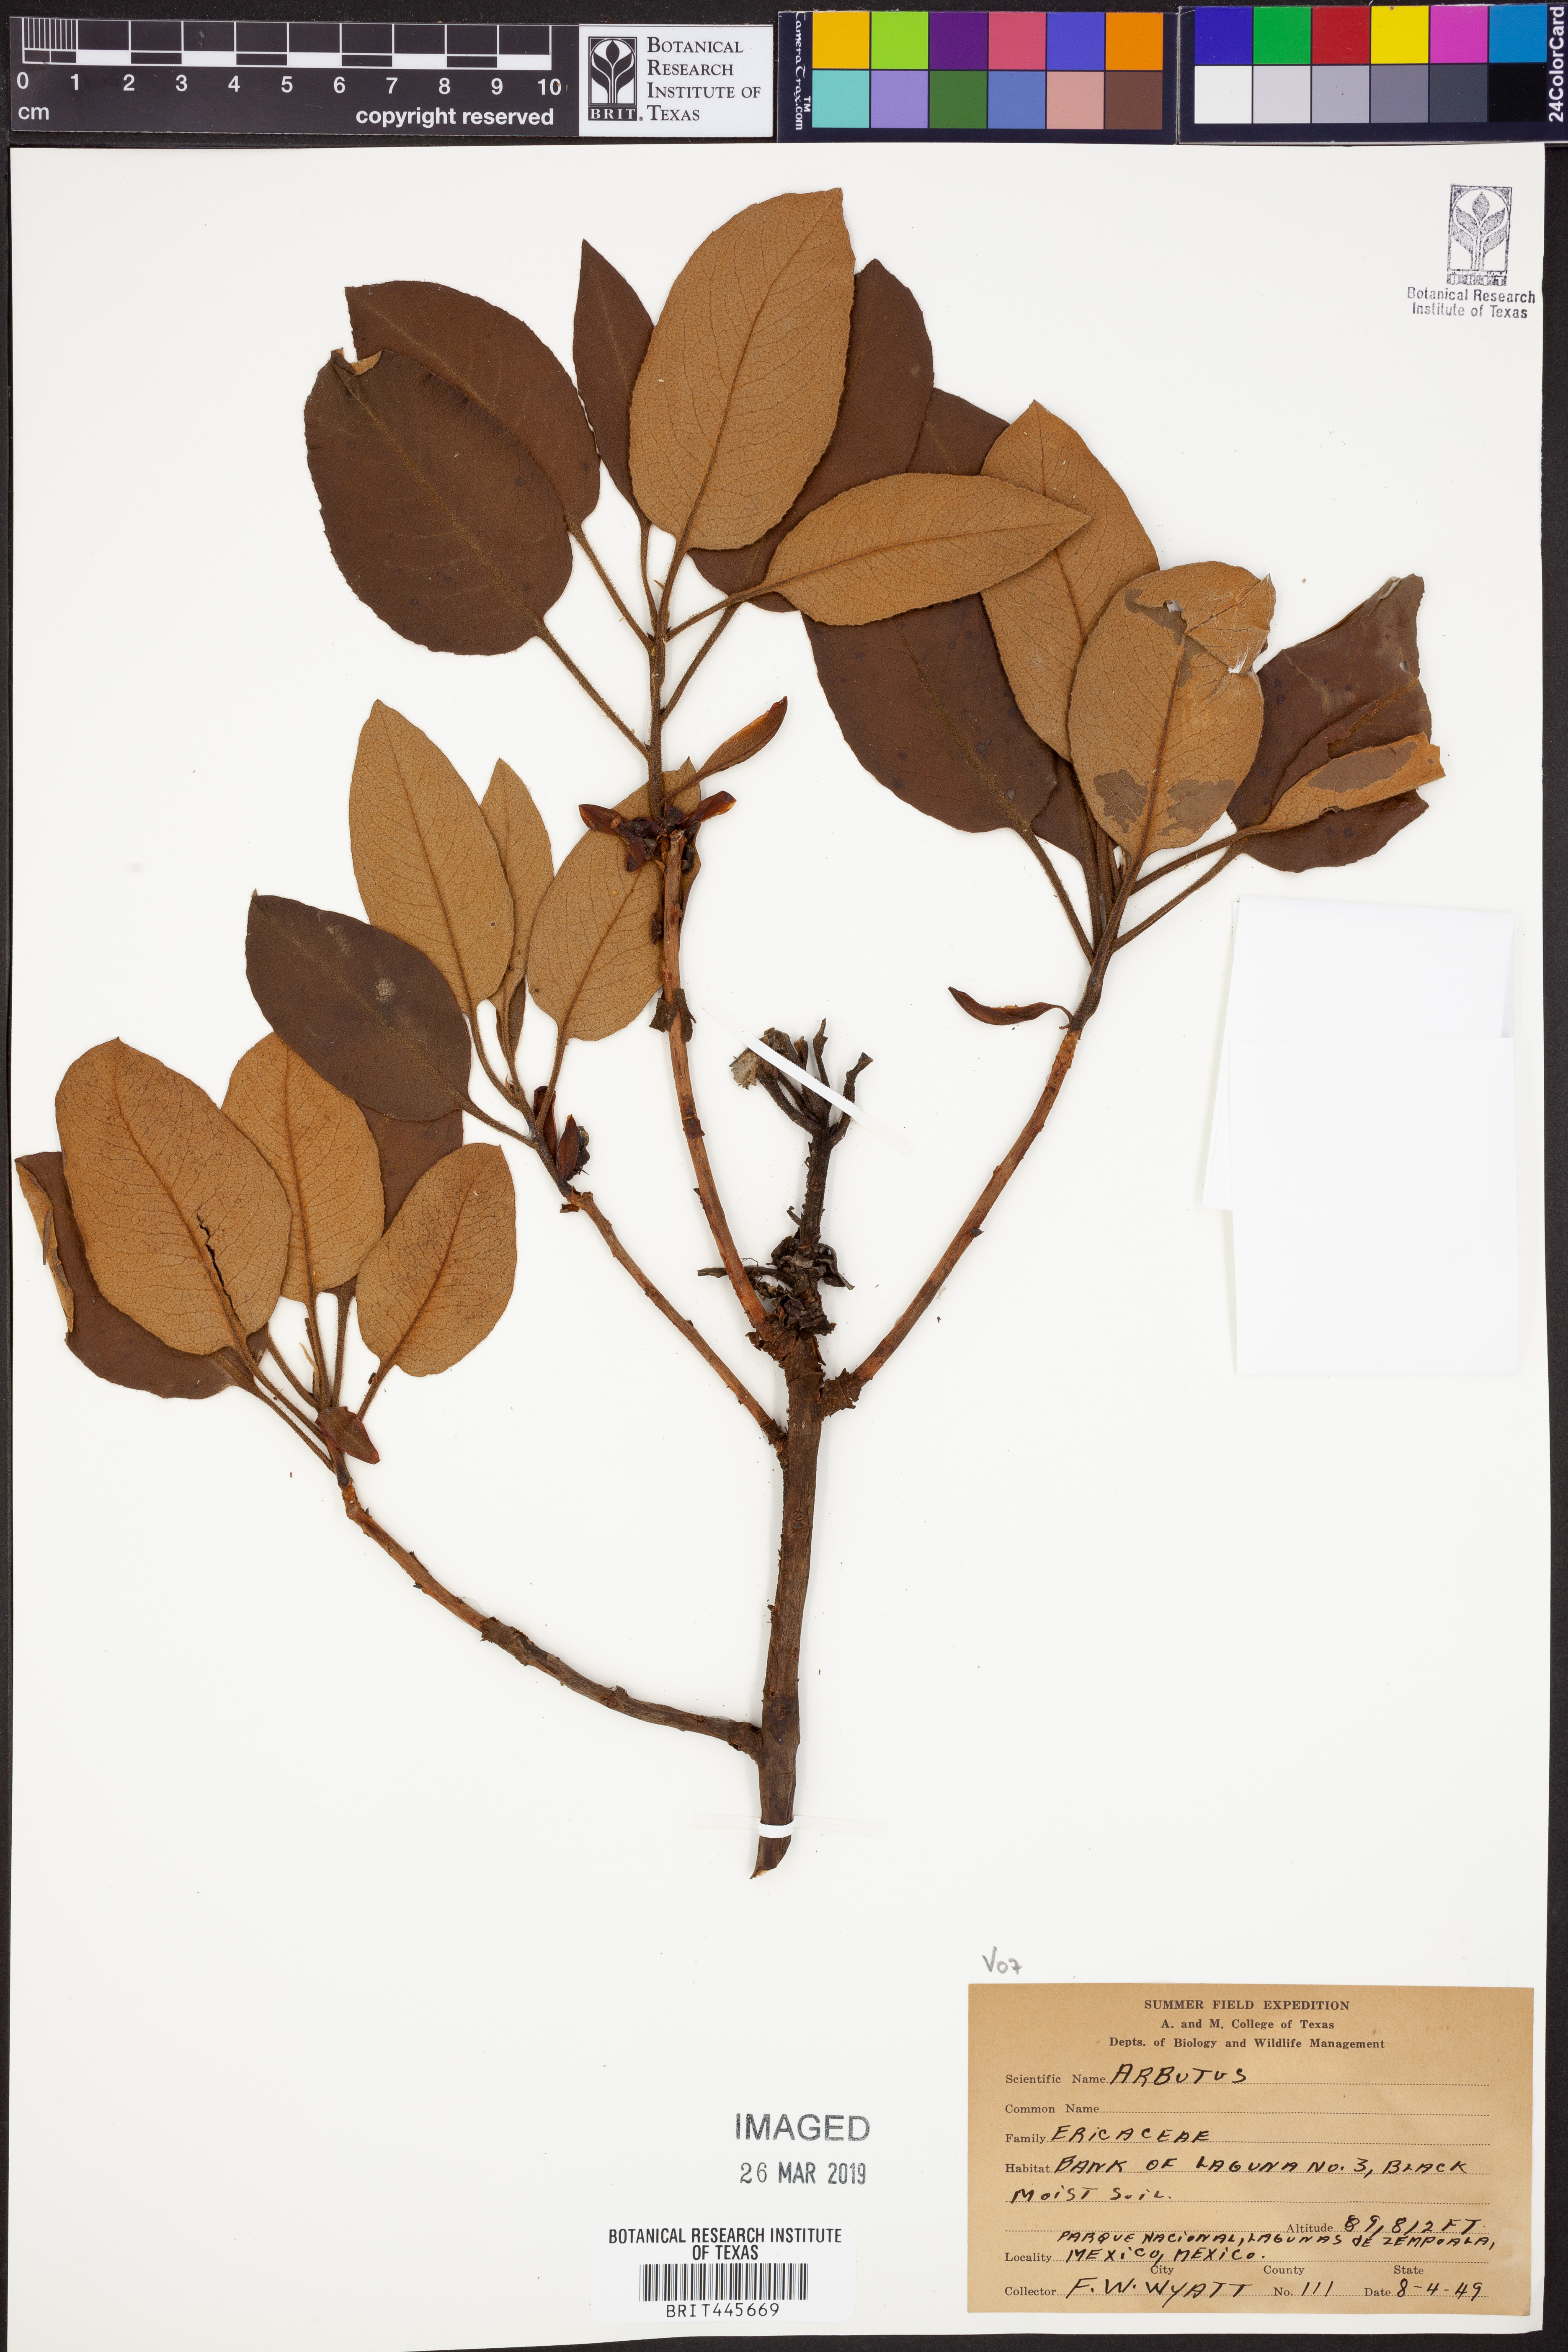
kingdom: Plantae
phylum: Tracheophyta
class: Magnoliopsida
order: Ericales
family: Ericaceae
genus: Arbutus
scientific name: Arbutus
